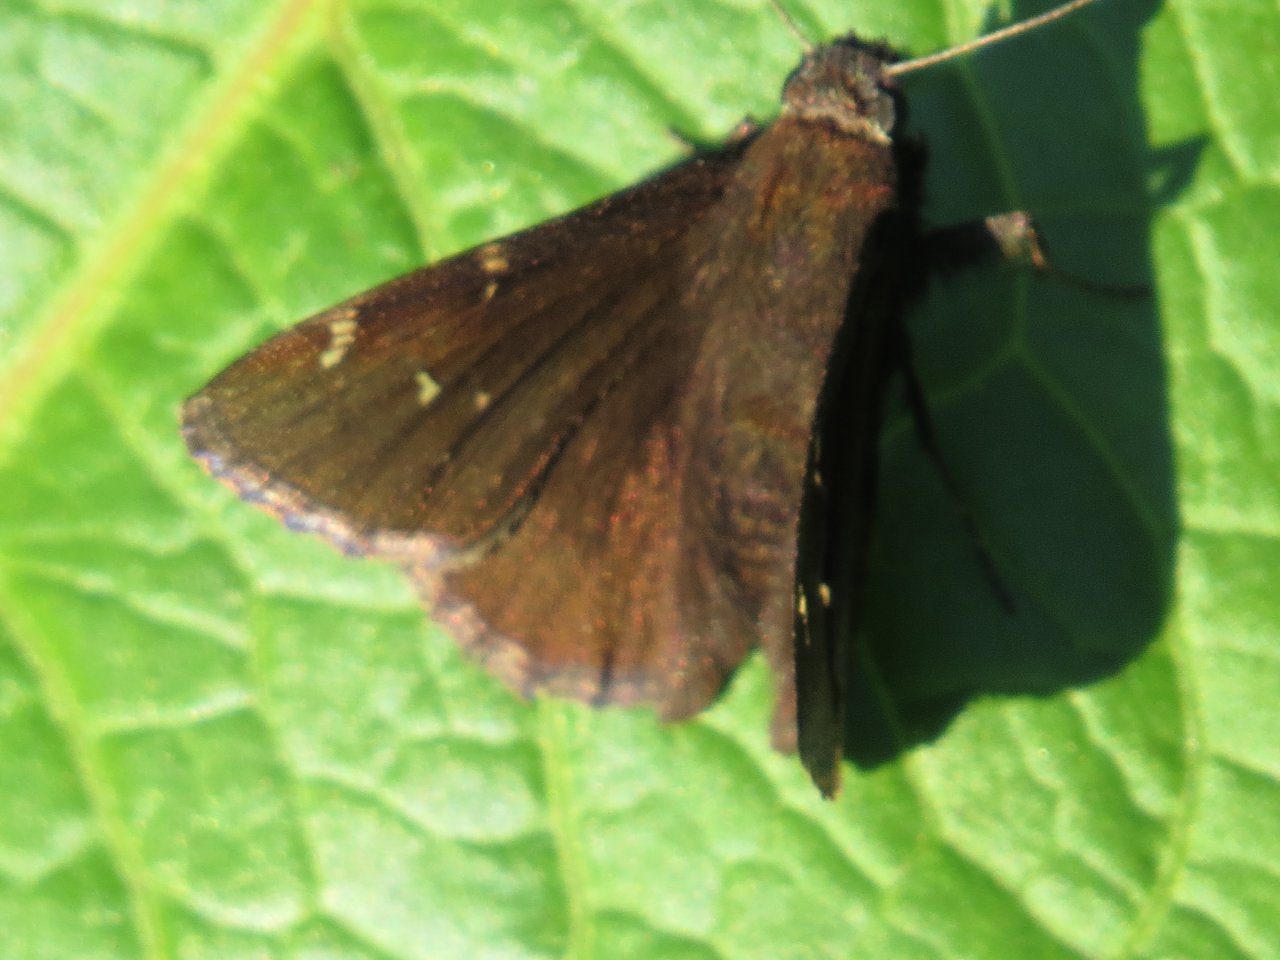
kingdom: Animalia
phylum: Arthropoda
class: Insecta
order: Lepidoptera
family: Hesperiidae
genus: Autochton
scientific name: Autochton
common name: Northern Cloudywing
